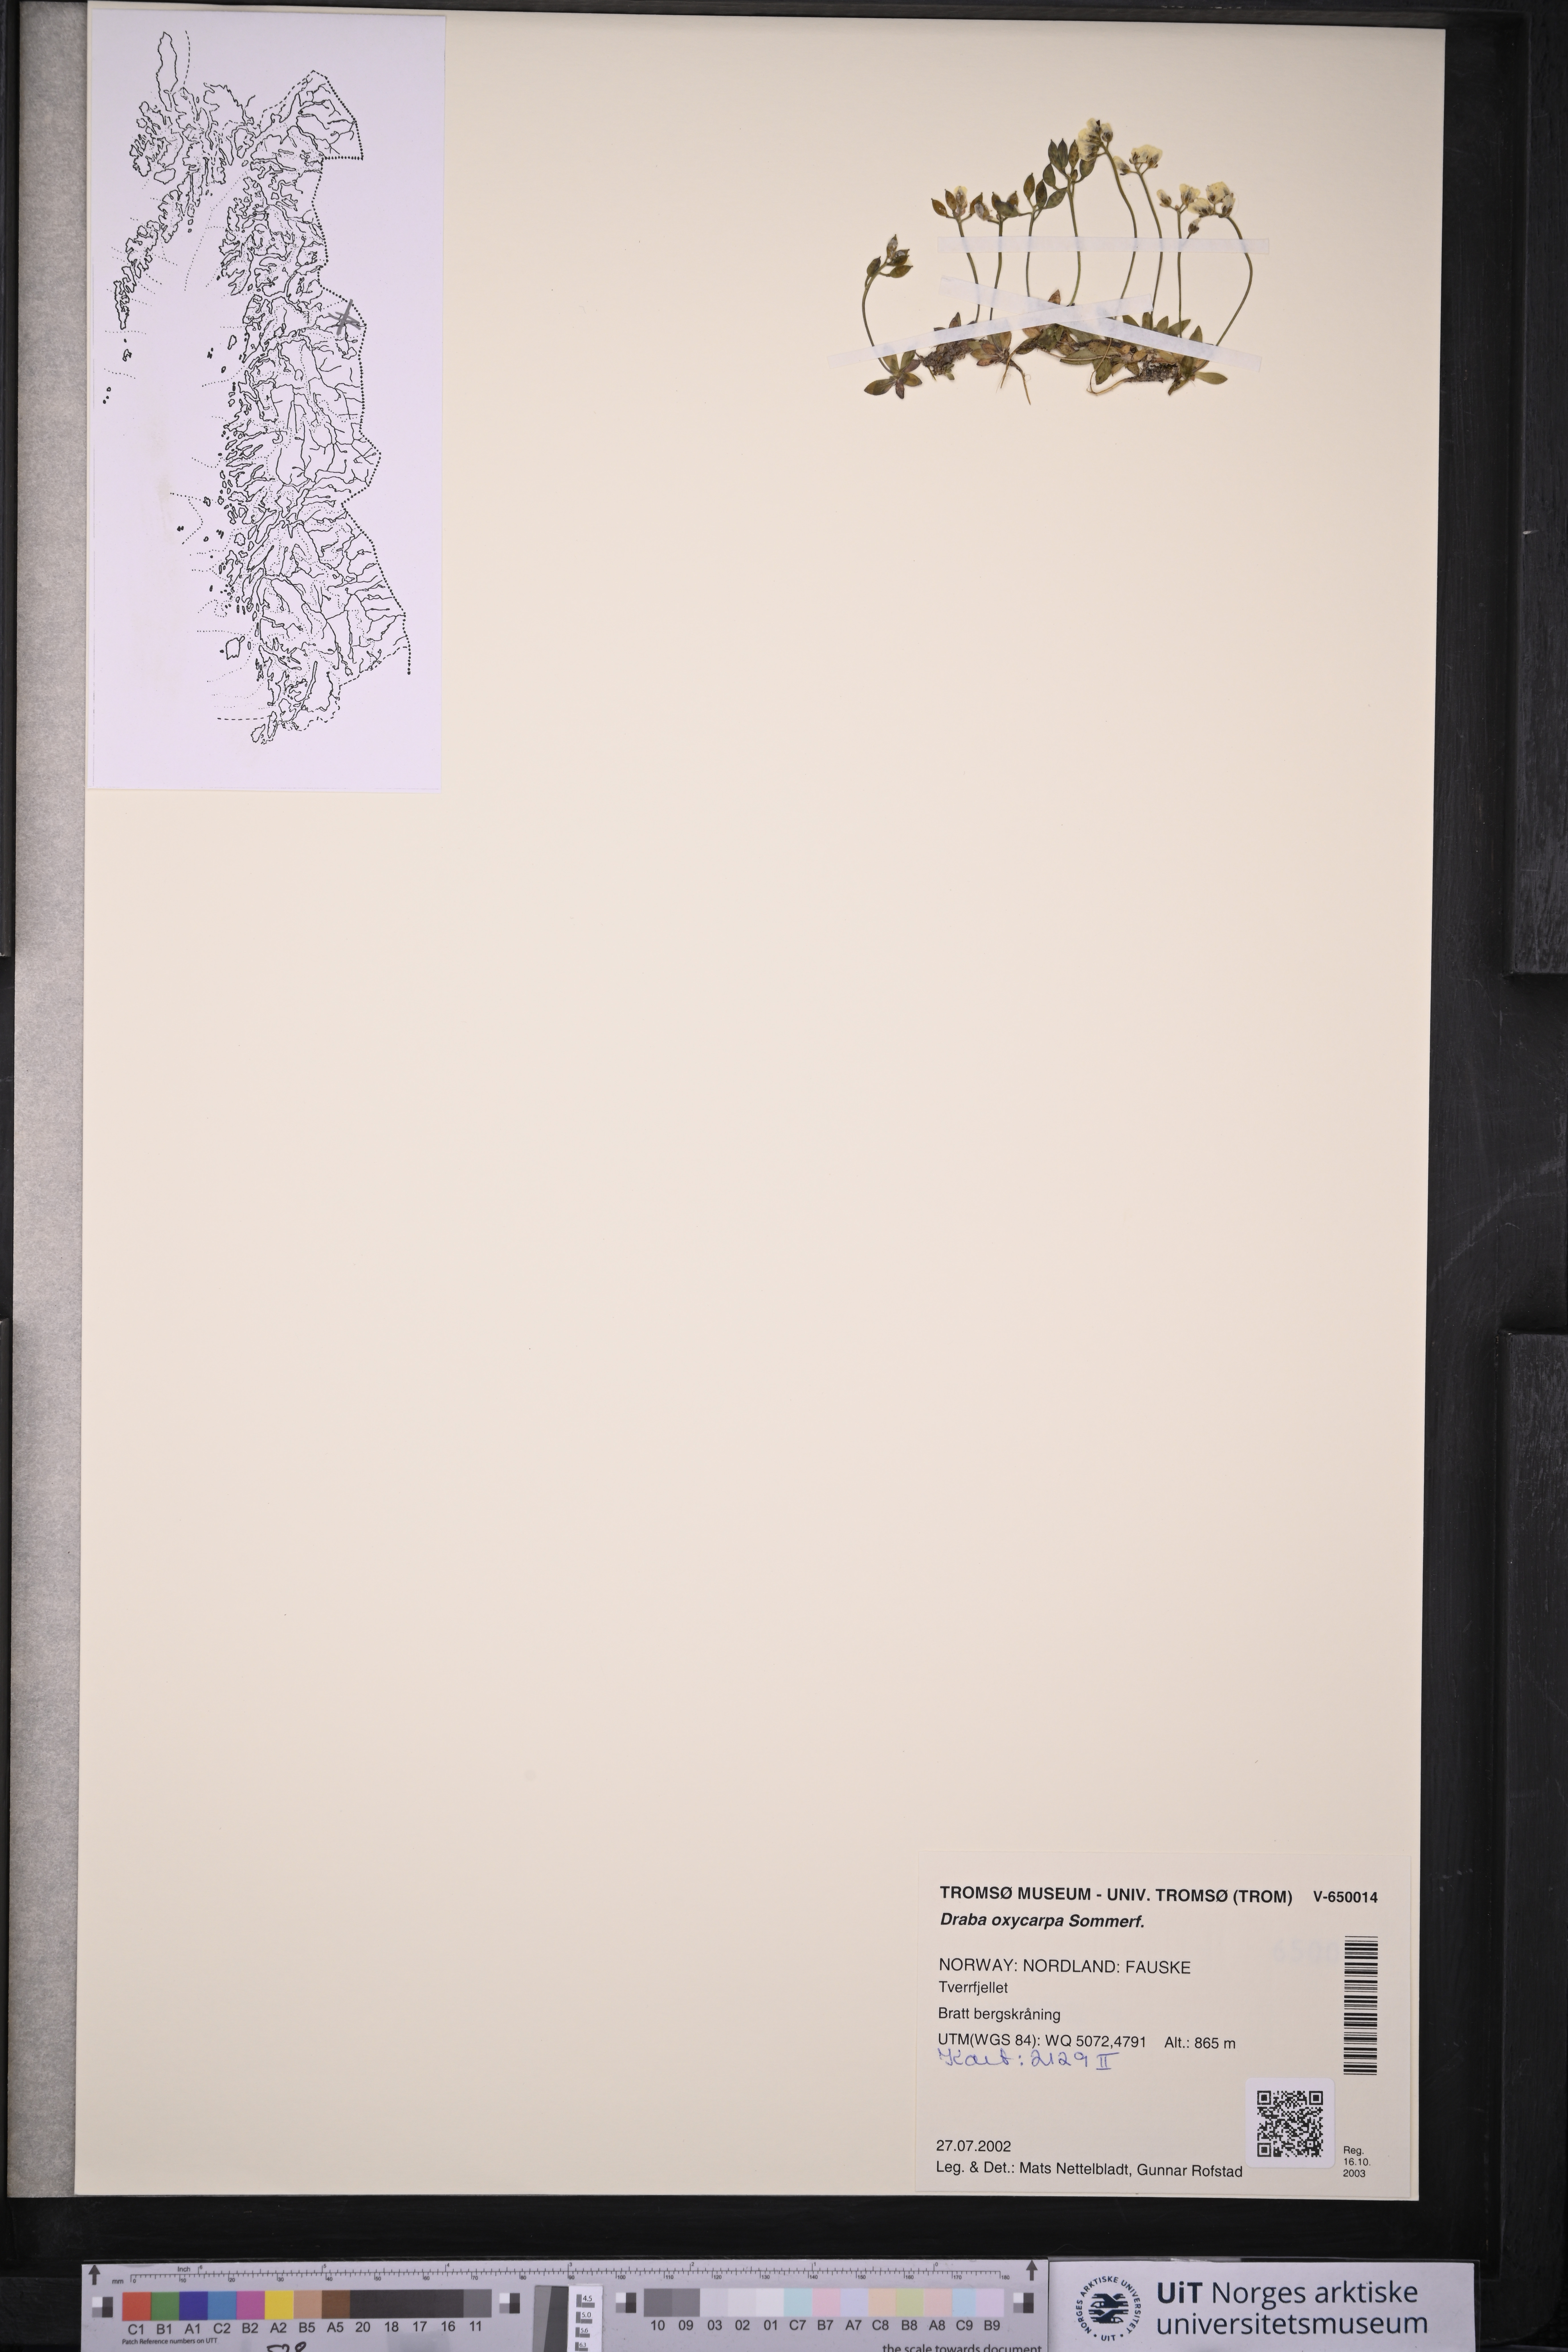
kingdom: Plantae
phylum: Tracheophyta
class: Magnoliopsida
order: Brassicales
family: Brassicaceae
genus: Draba
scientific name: Draba oxycarpa
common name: Sharp-fruited whitlow-grass
